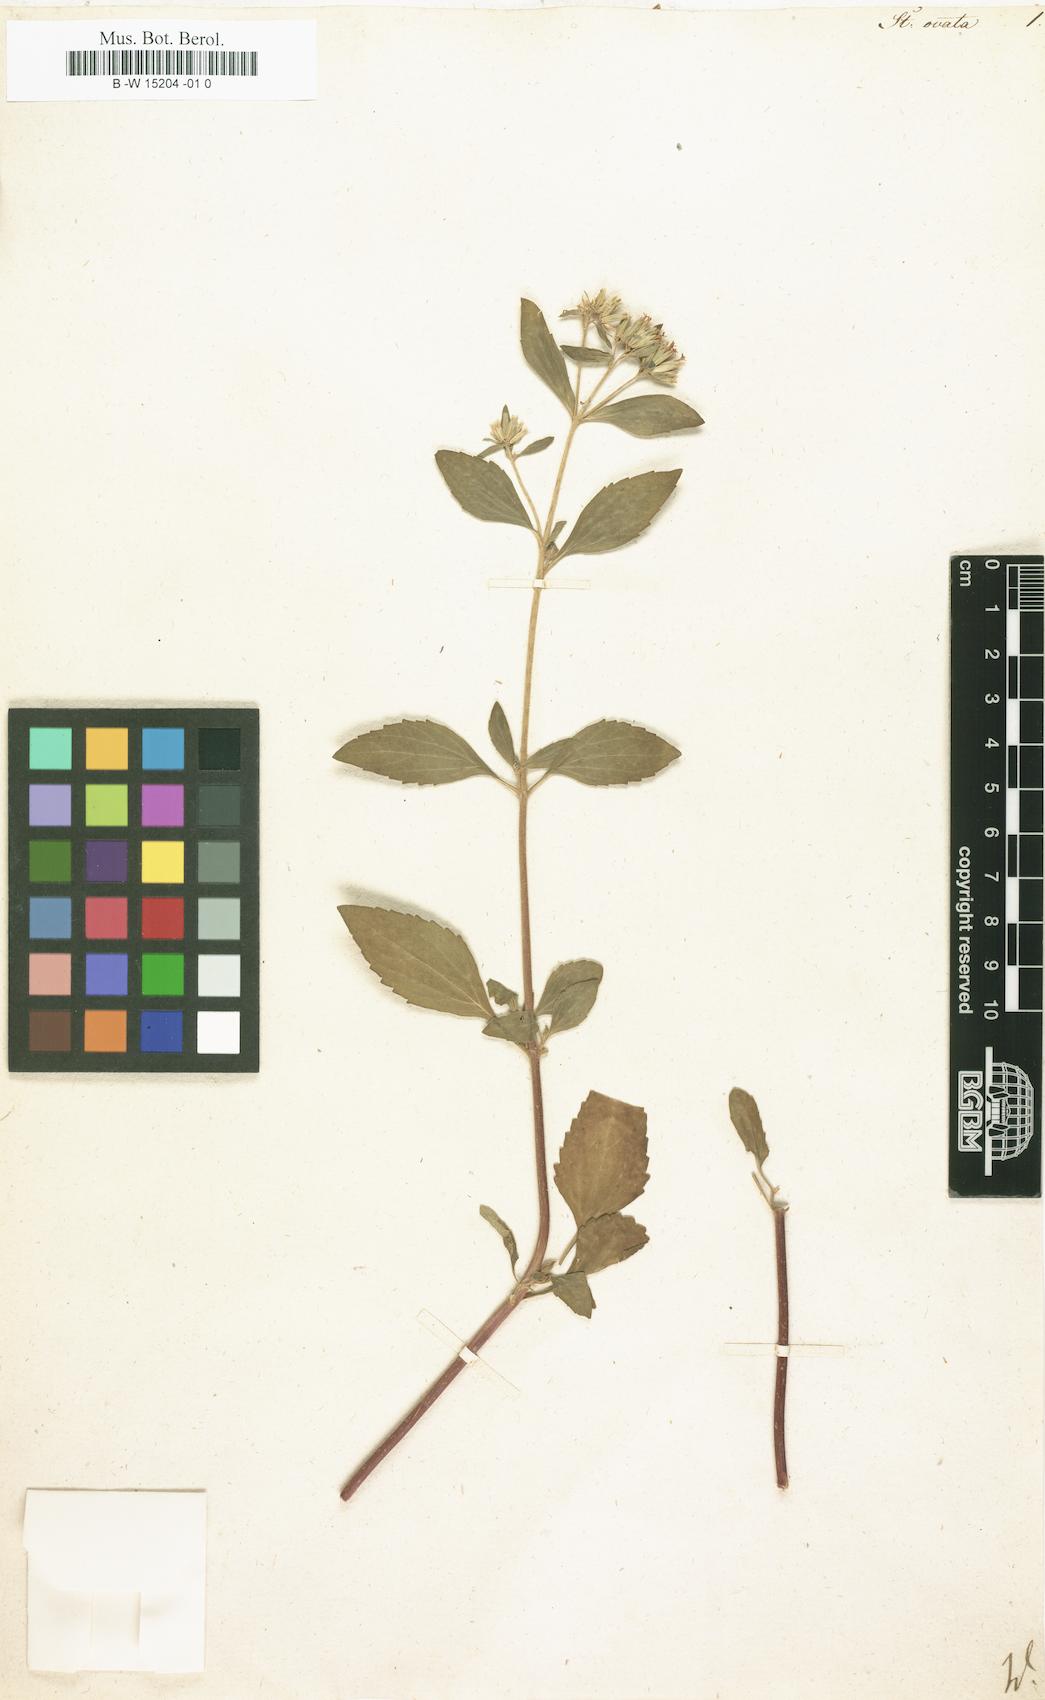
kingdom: Plantae
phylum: Tracheophyta
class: Magnoliopsida
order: Asterales
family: Asteraceae
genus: Stevia
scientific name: Stevia ovata
